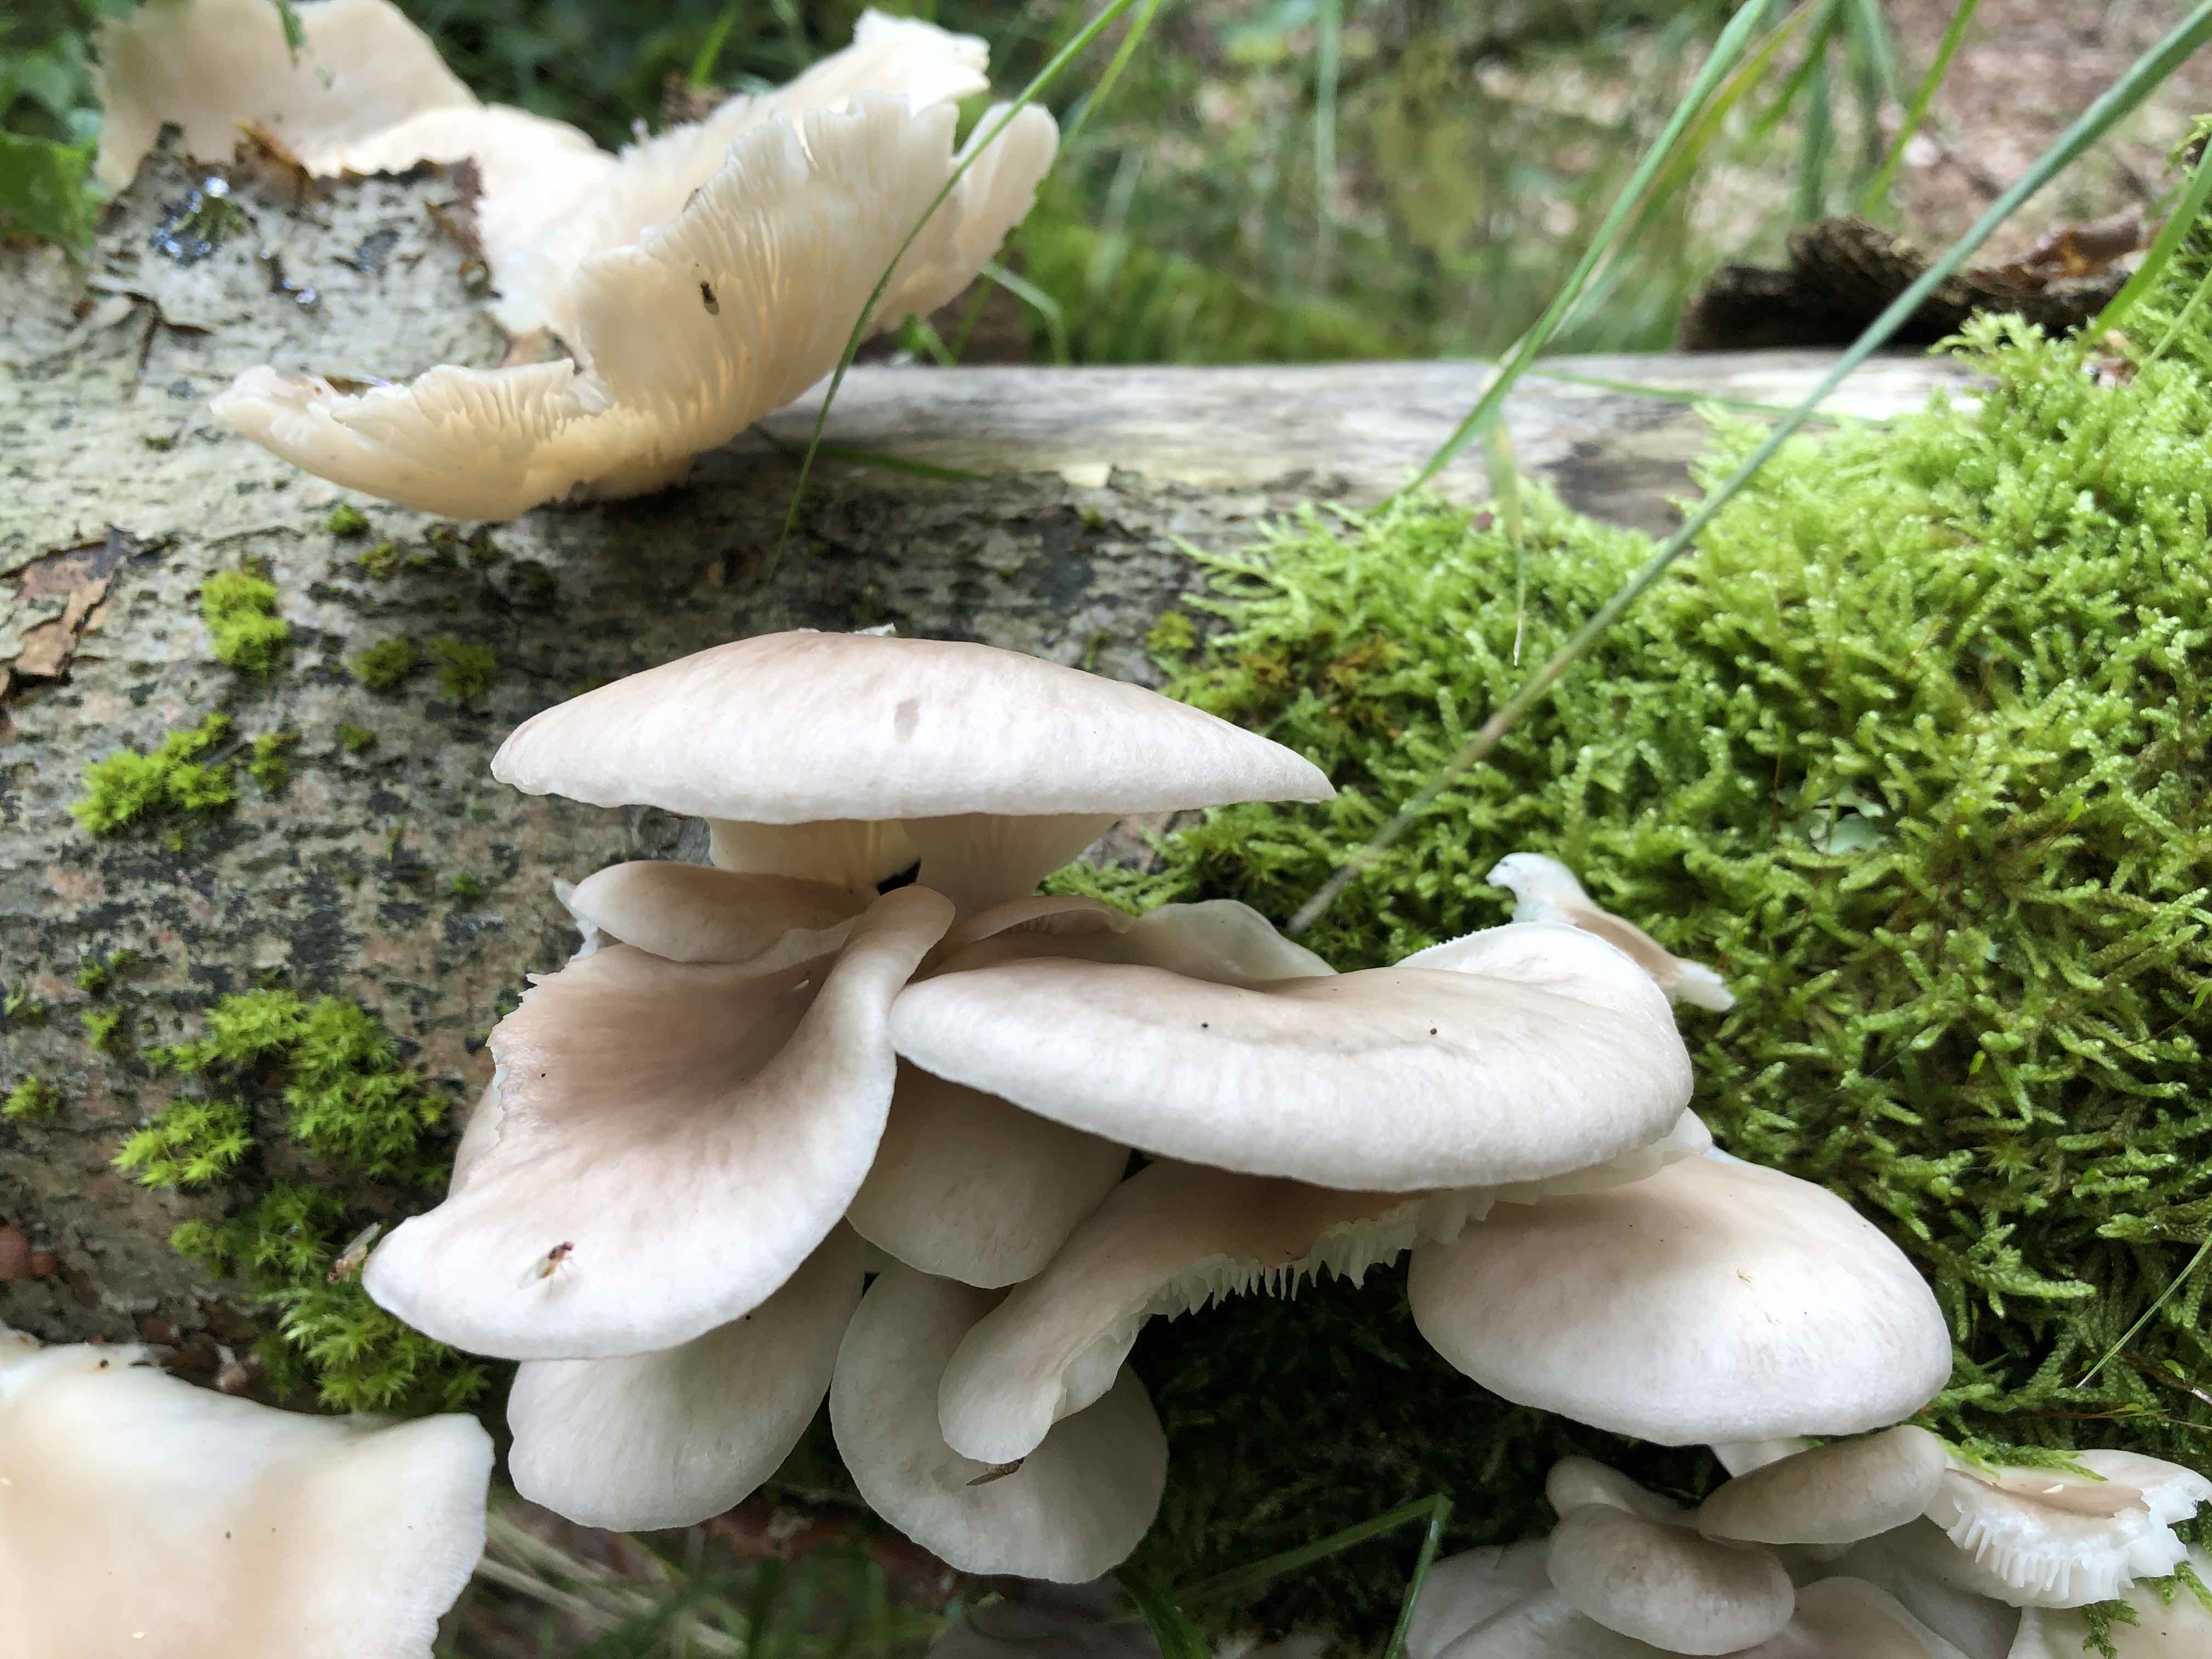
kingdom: Fungi
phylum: Basidiomycota
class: Agaricomycetes
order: Agaricales
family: Pleurotaceae
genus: Pleurotus
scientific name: Pleurotus pulmonarius
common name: sommer-østershat
